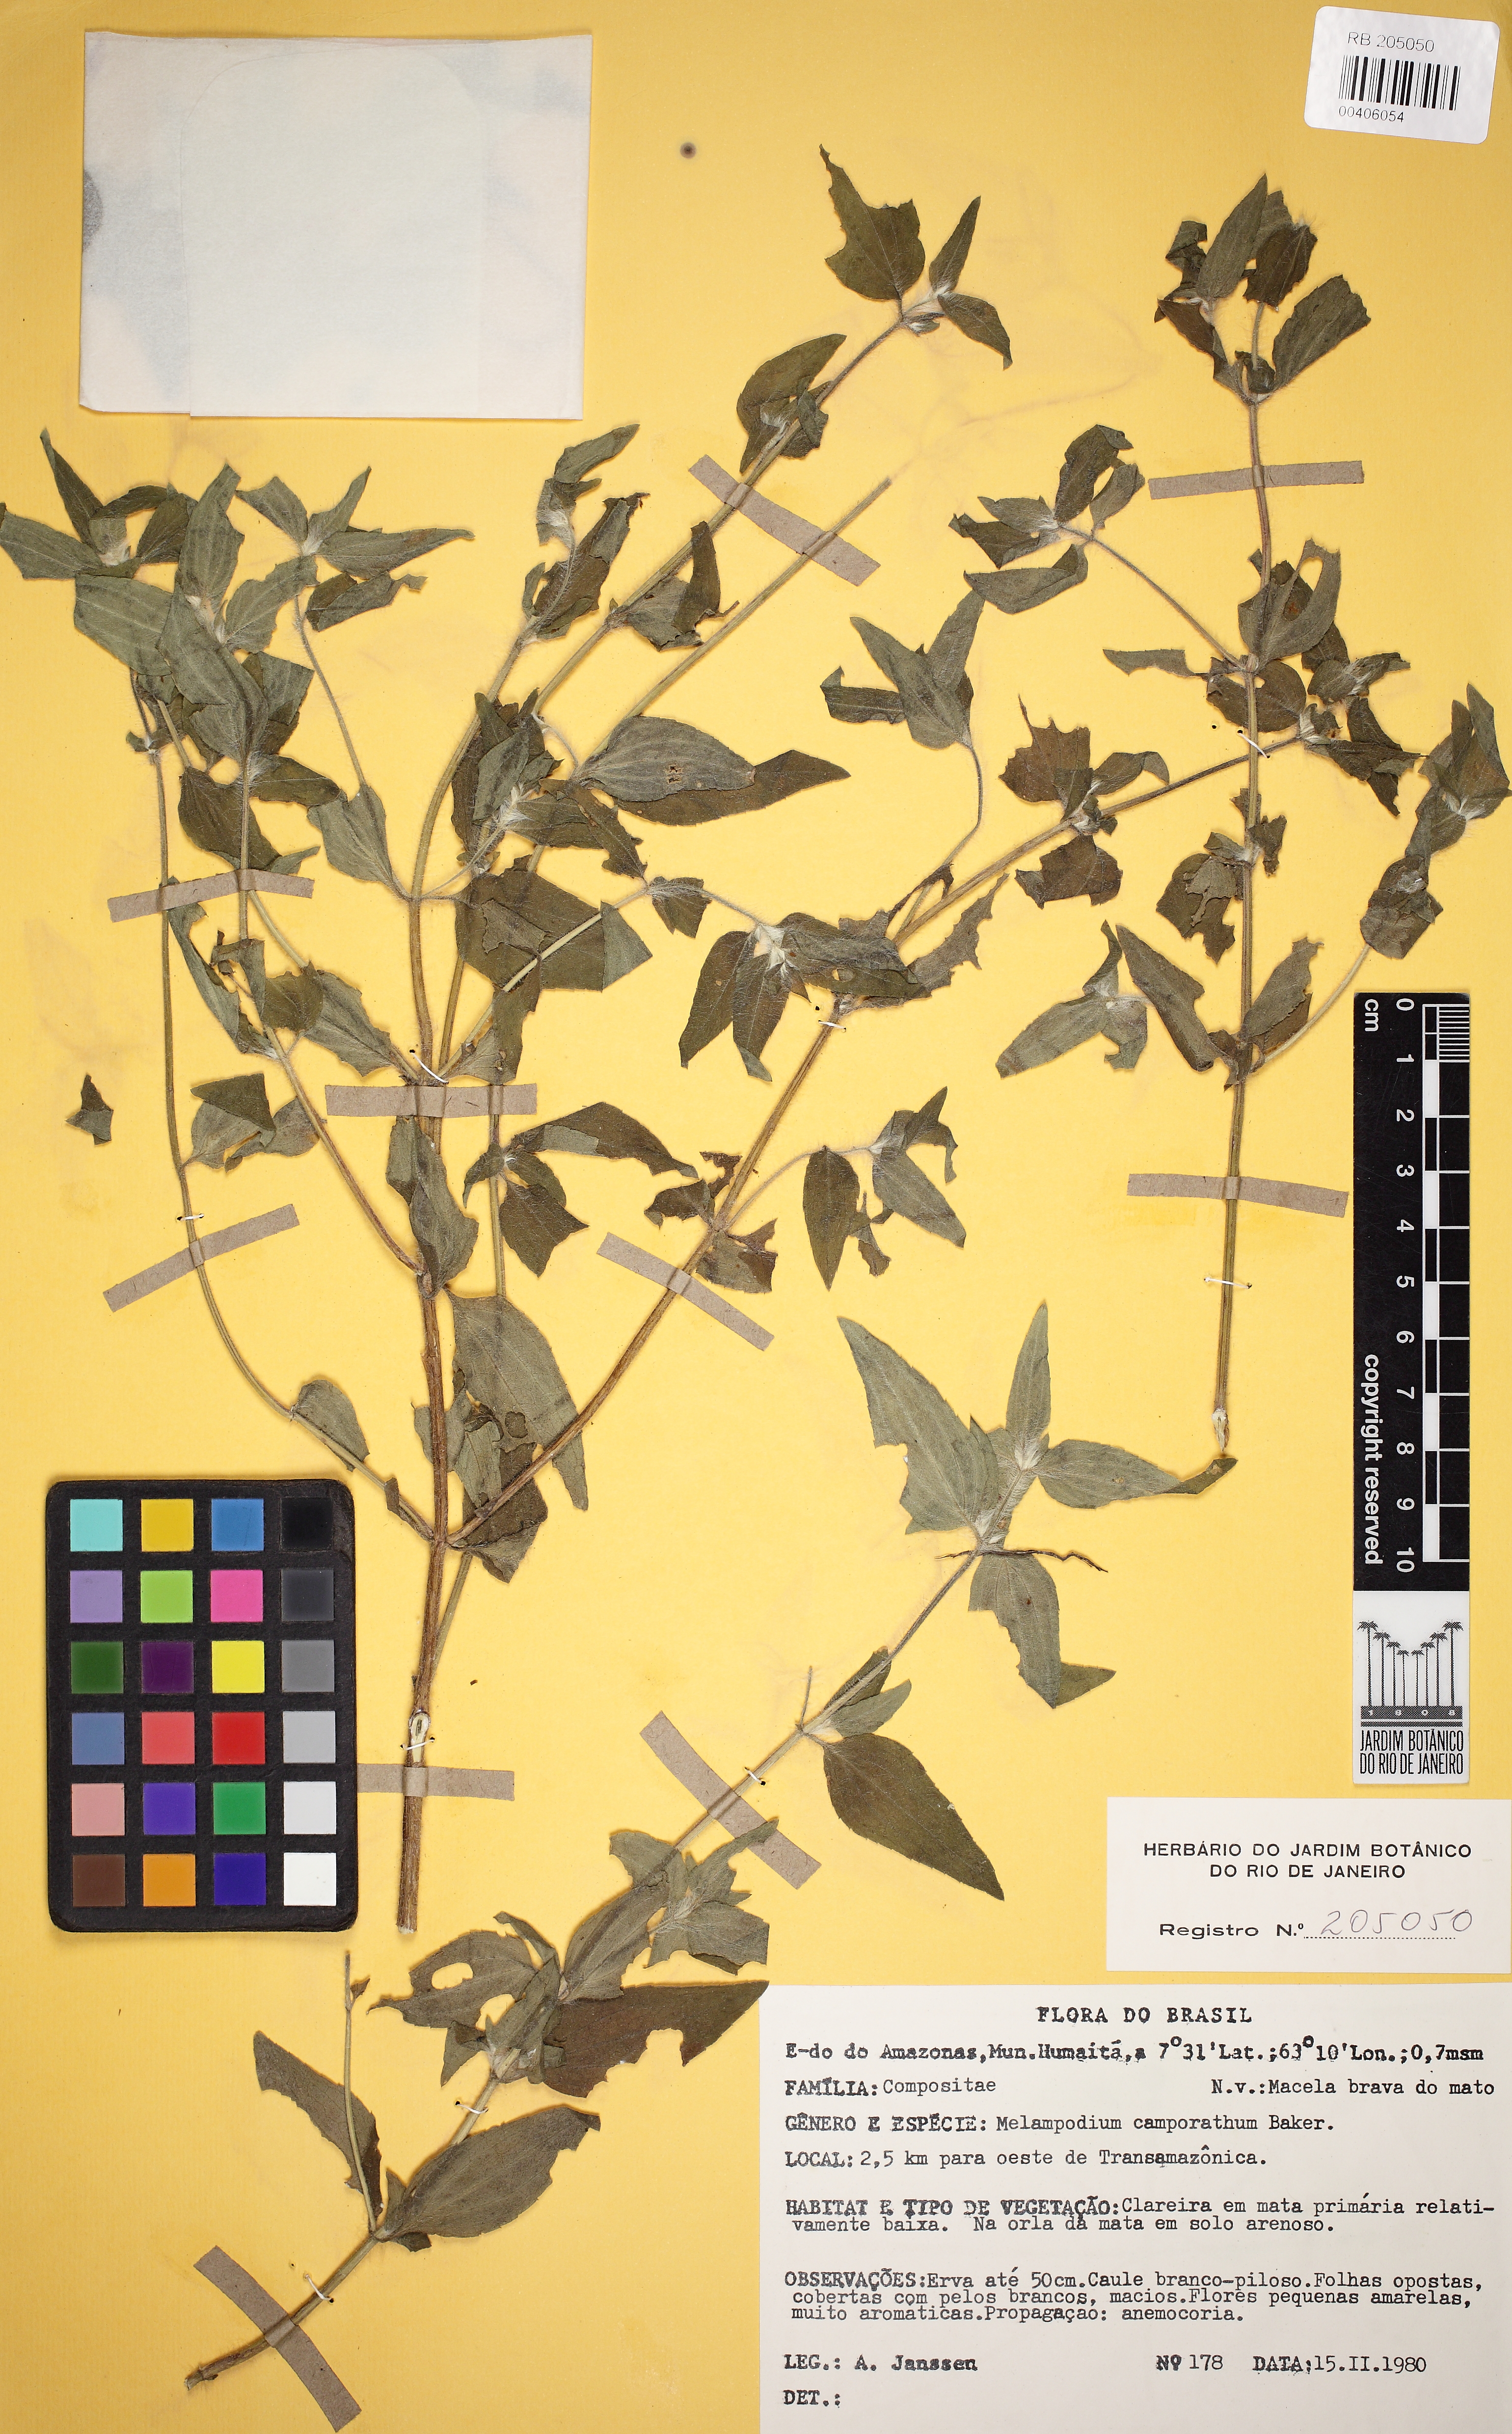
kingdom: Plantae
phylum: Tracheophyta
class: Magnoliopsida
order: Asterales
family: Asteraceae
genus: Melampodium
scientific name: Melampodium camphoratum
